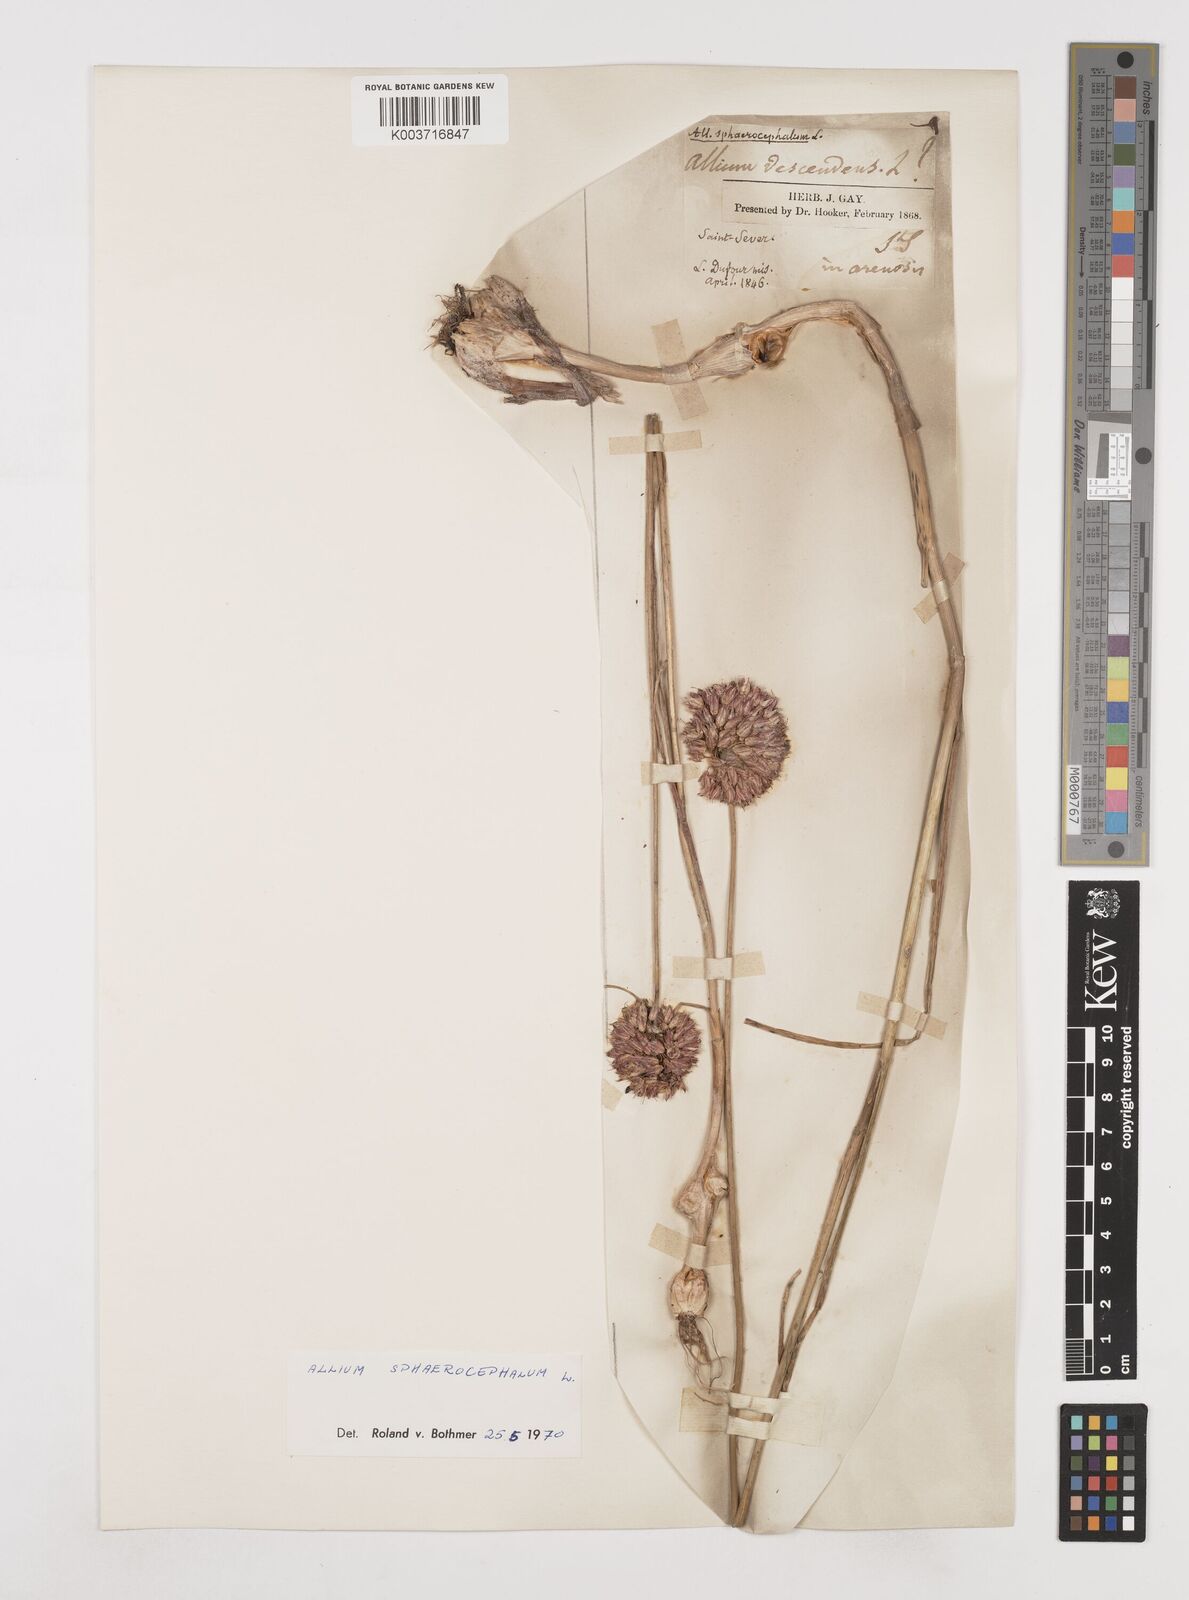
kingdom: Plantae
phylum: Tracheophyta
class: Liliopsida
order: Asparagales
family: Amaryllidaceae
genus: Allium
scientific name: Allium sphaerocephalon
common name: Round-headed leek
